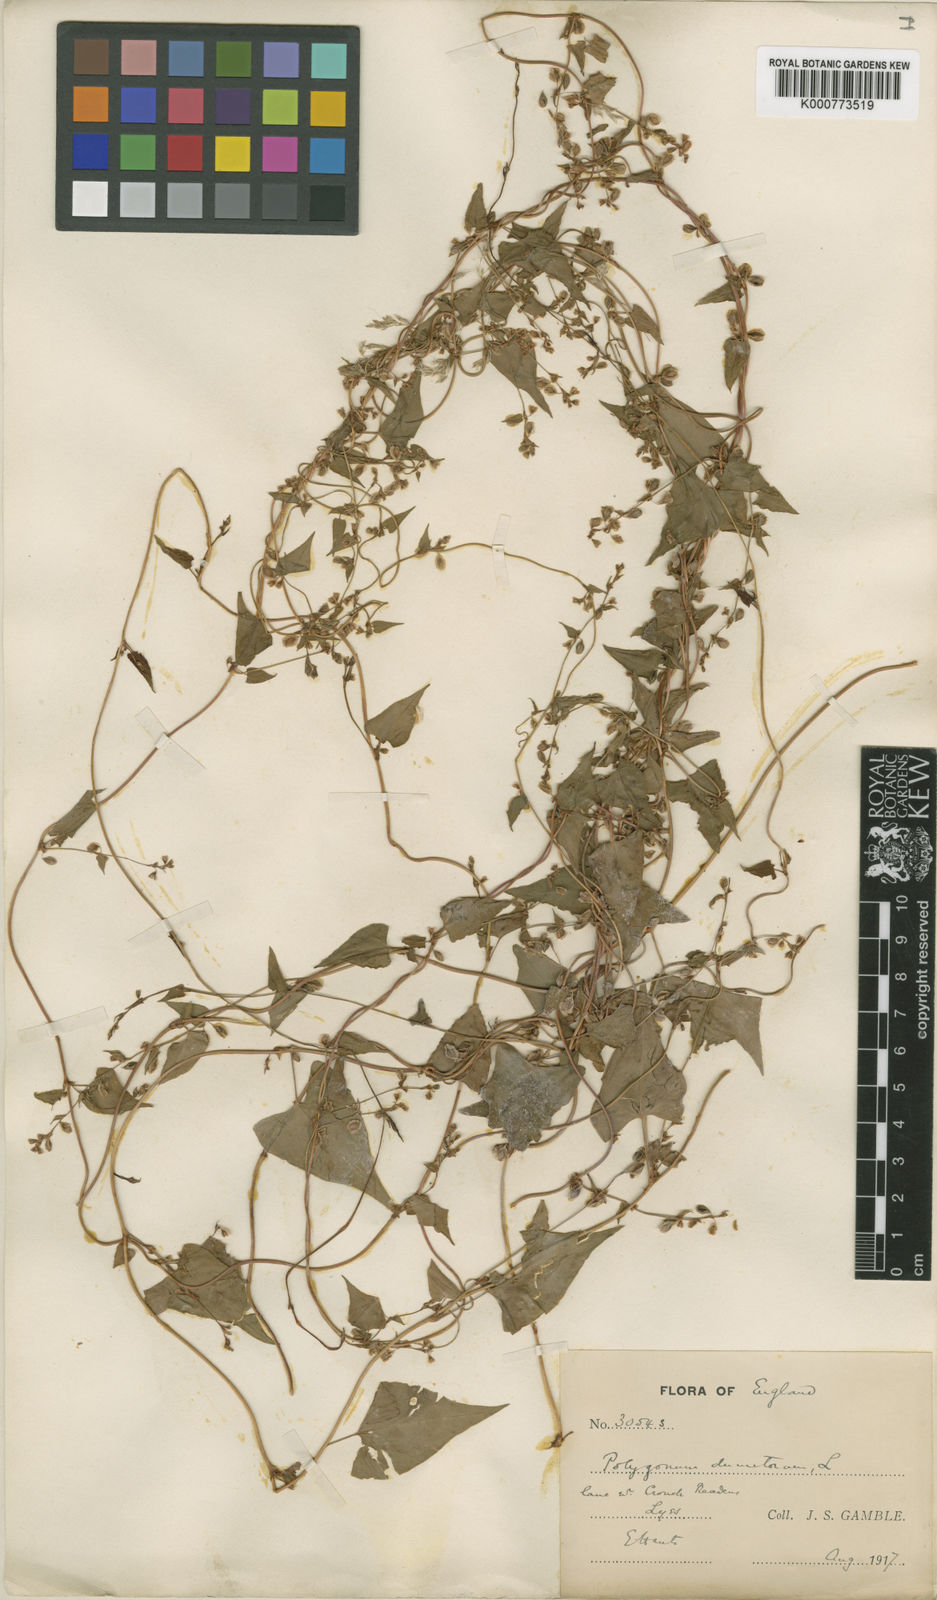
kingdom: Plantae
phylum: Tracheophyta
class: Magnoliopsida
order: Caryophyllales
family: Polygonaceae
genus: Fallopia
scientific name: Fallopia dumetorum
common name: Copse-bindweed
